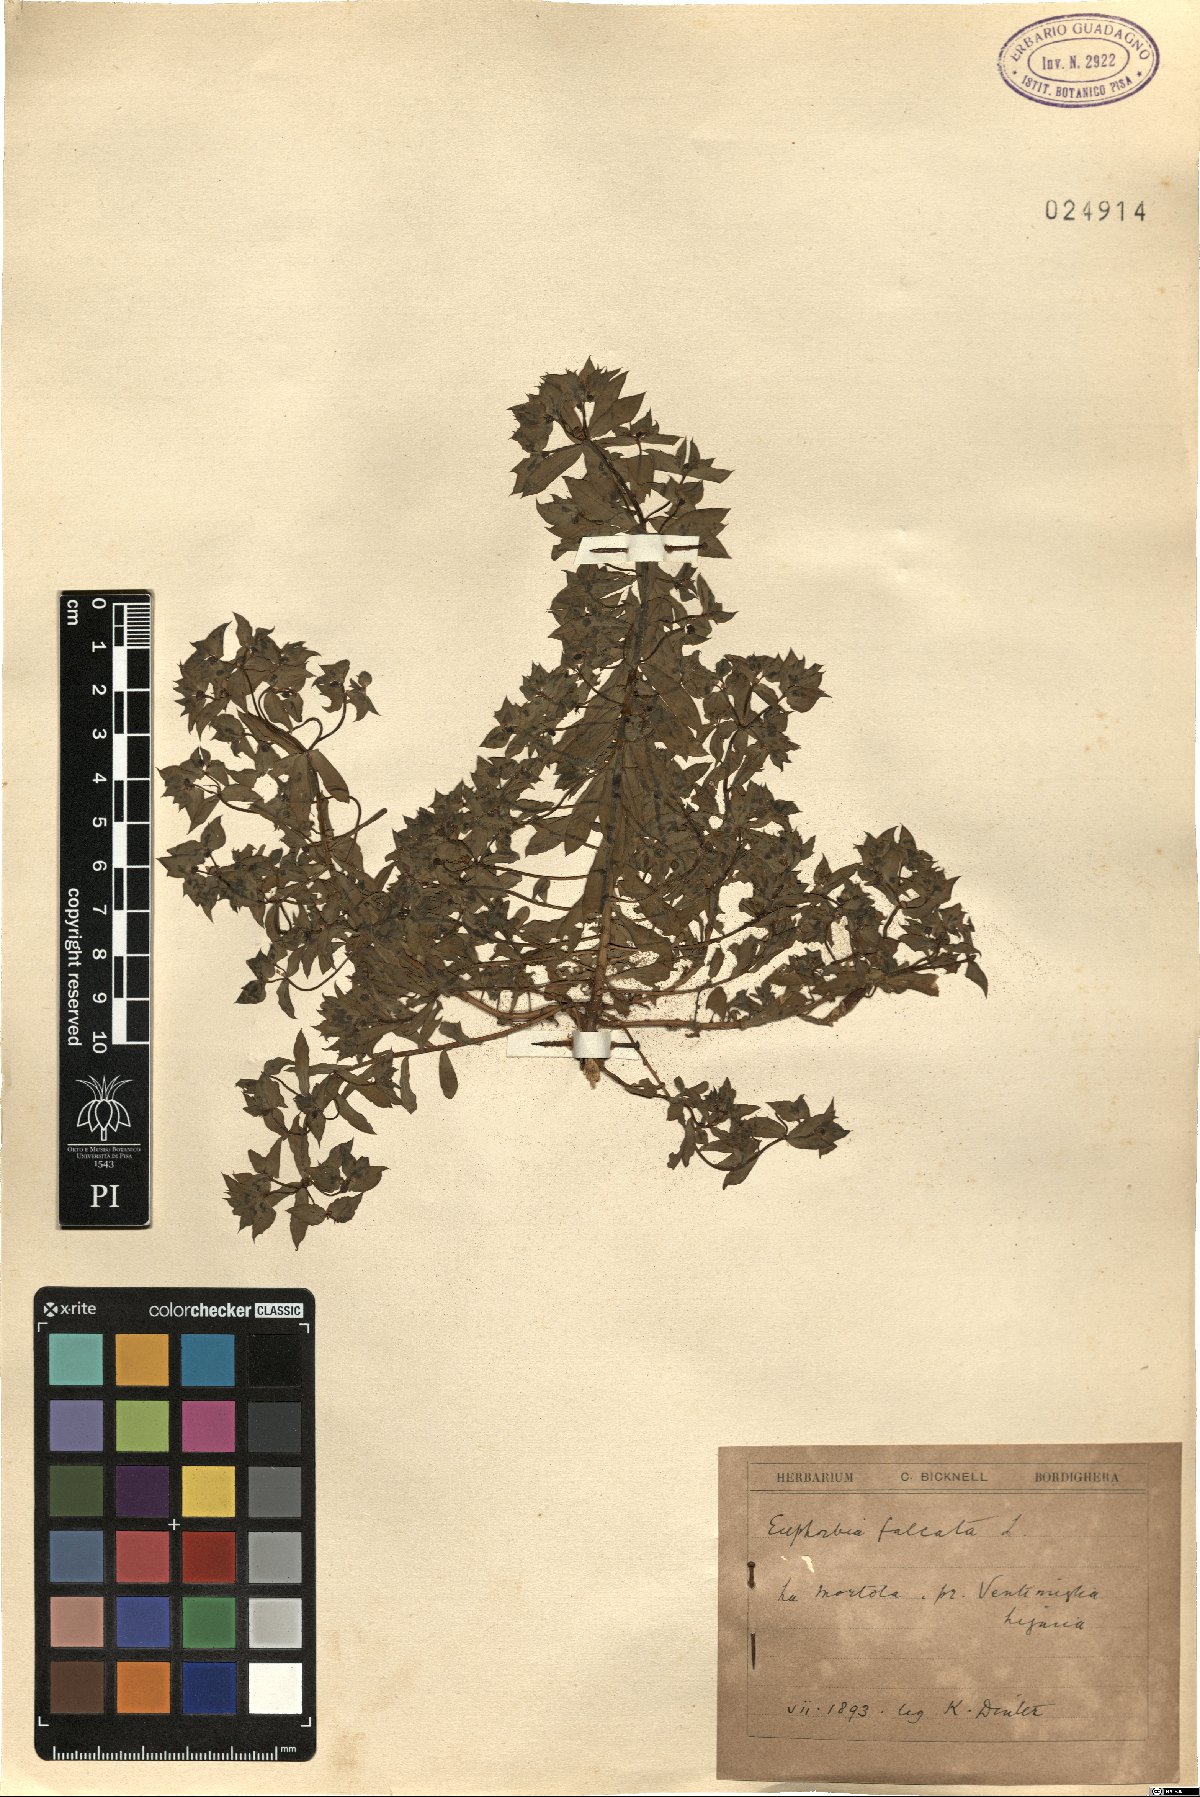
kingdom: Plantae
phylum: Tracheophyta
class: Magnoliopsida
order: Malpighiales
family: Euphorbiaceae
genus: Euphorbia
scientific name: Euphorbia falcata
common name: Sickle spurge
